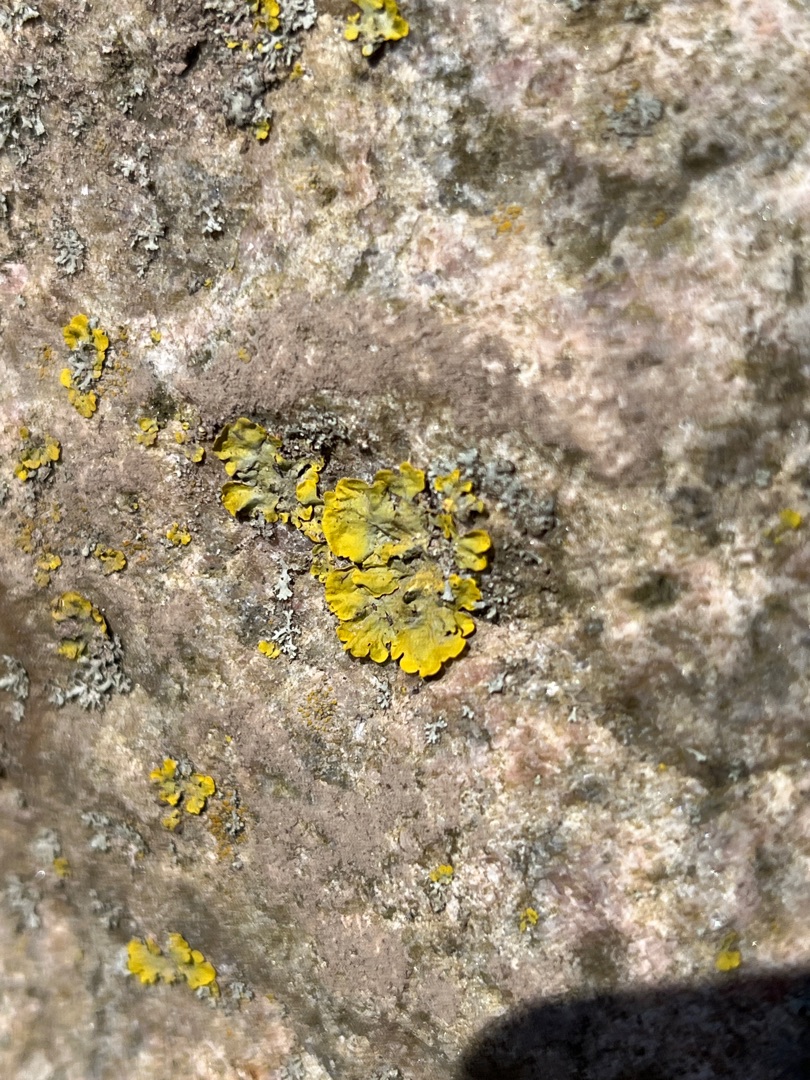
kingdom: Fungi
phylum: Ascomycota
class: Lecanoromycetes
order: Teloschistales
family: Teloschistaceae
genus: Xanthoria
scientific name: Xanthoria parietina
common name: Almindelig væggelav
